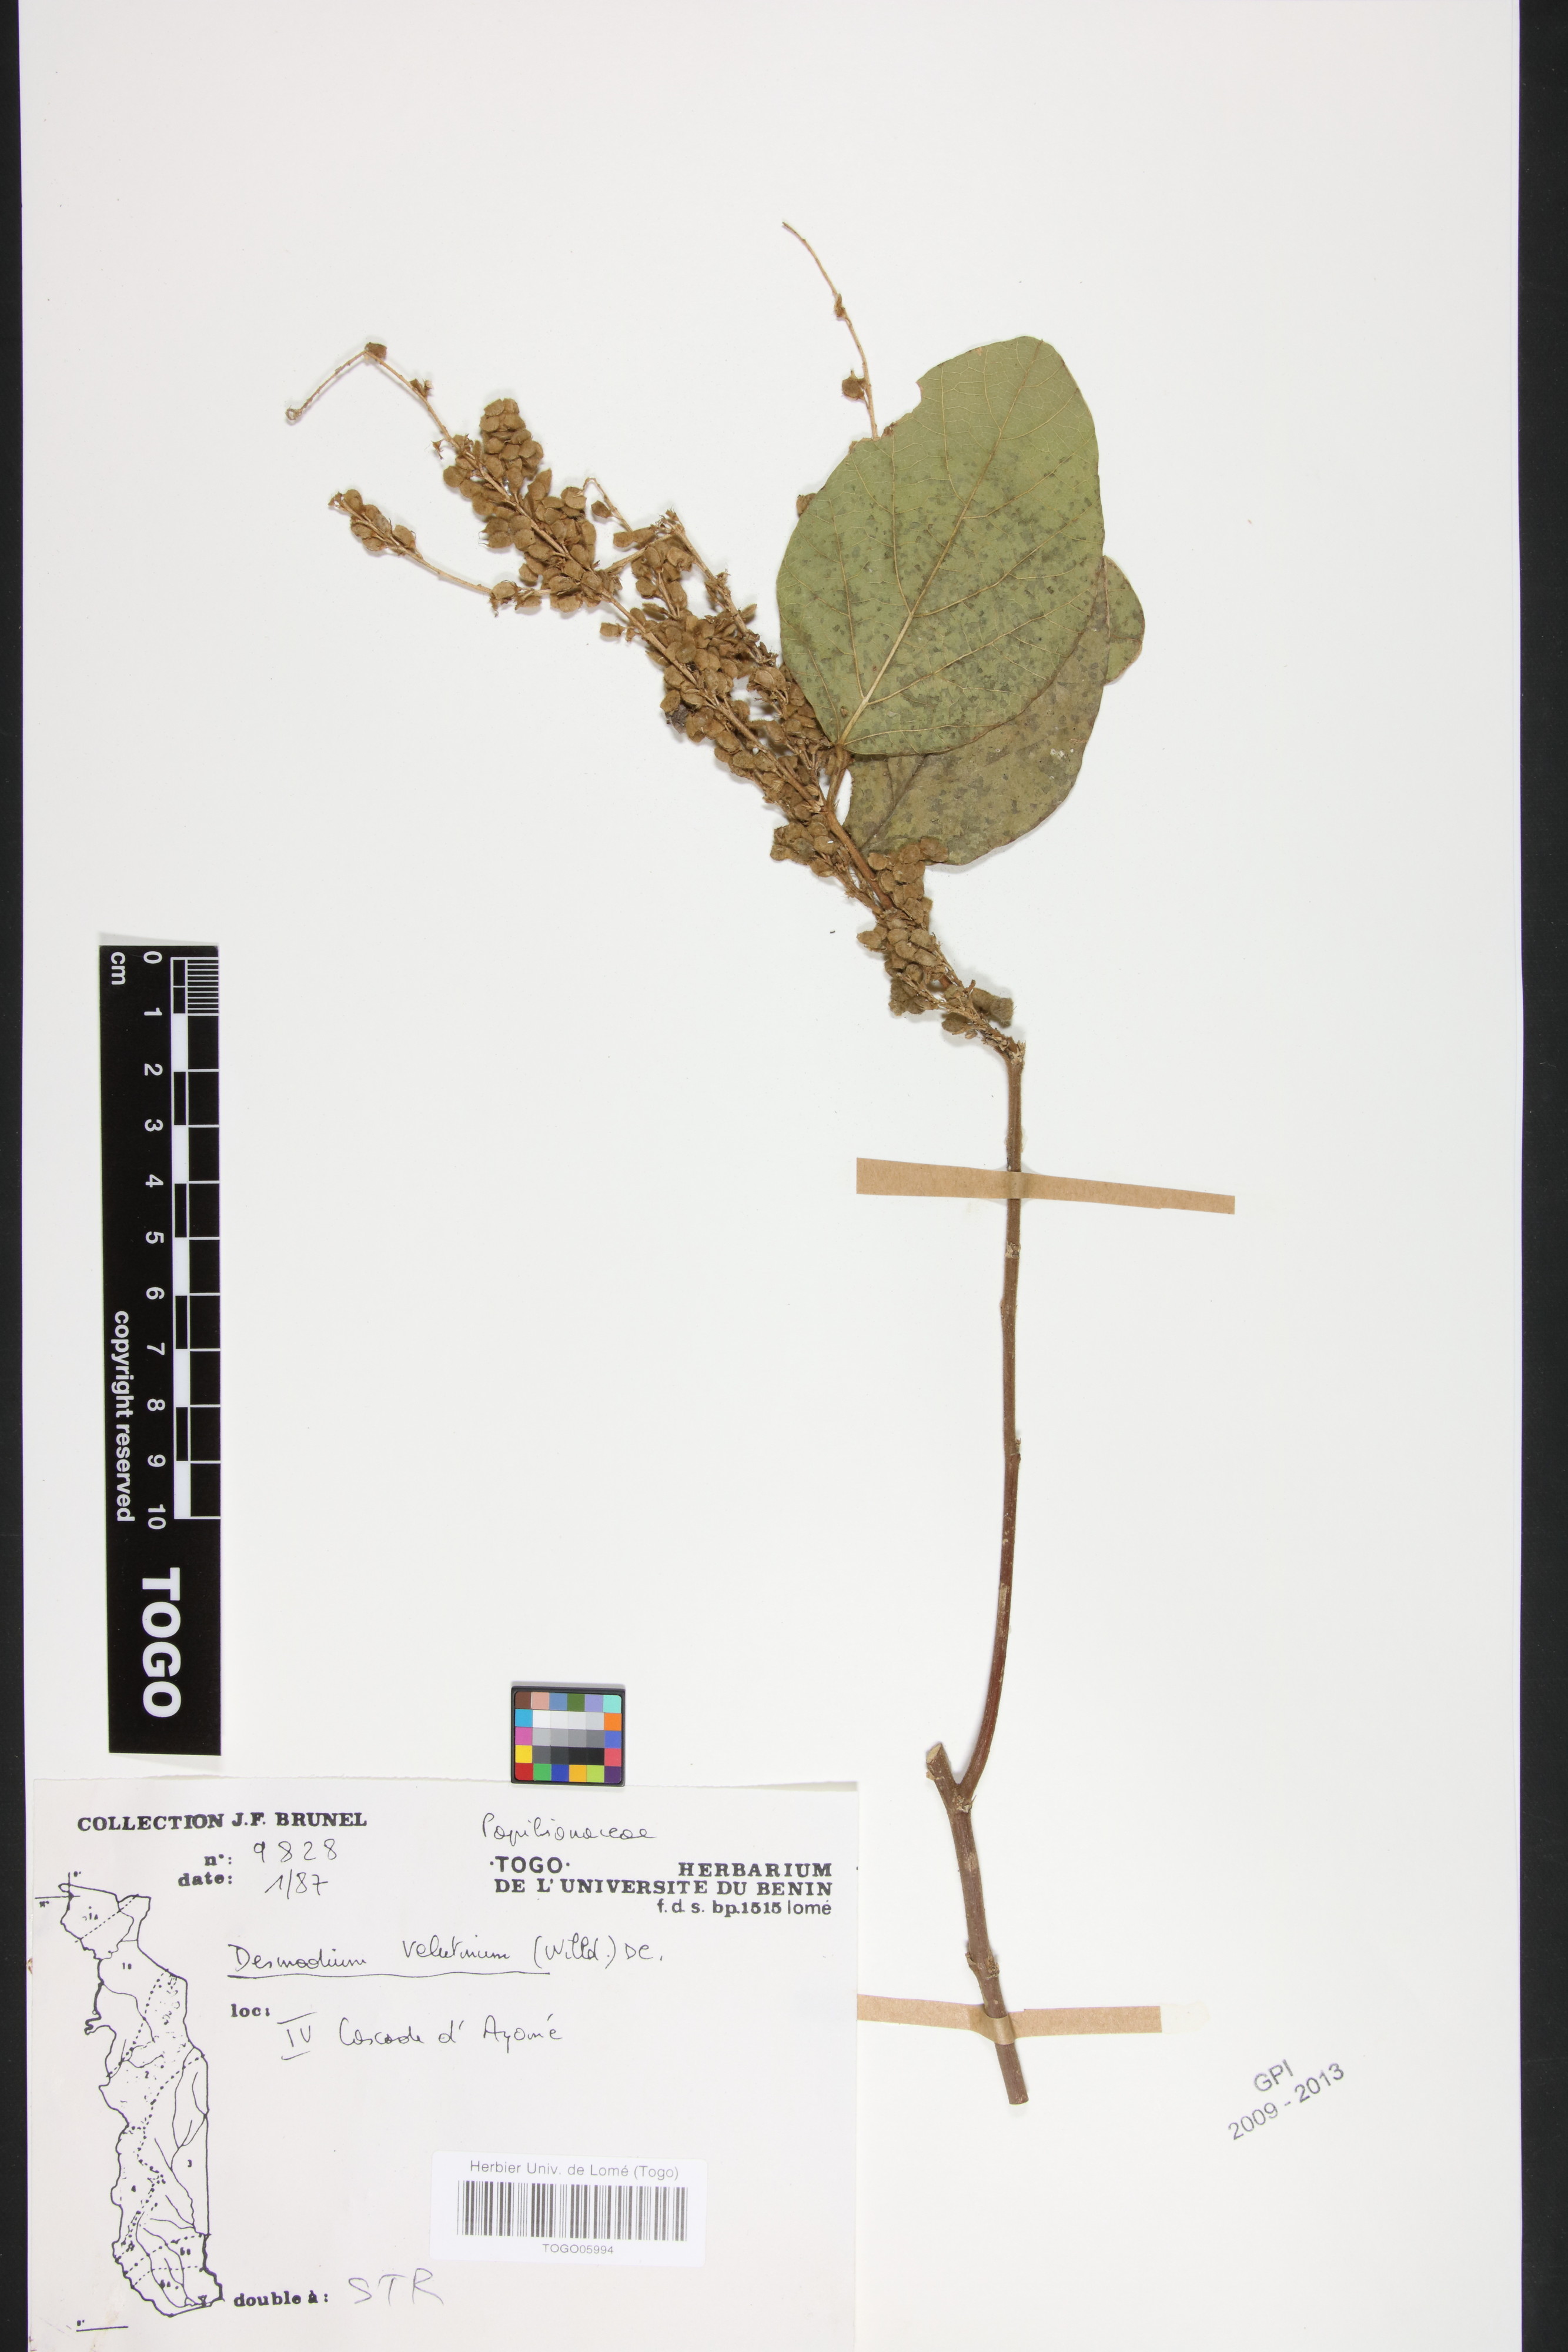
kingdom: Plantae
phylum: Tracheophyta
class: Magnoliopsida
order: Fabales
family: Fabaceae
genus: Polhillides
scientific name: Polhillides velutina
